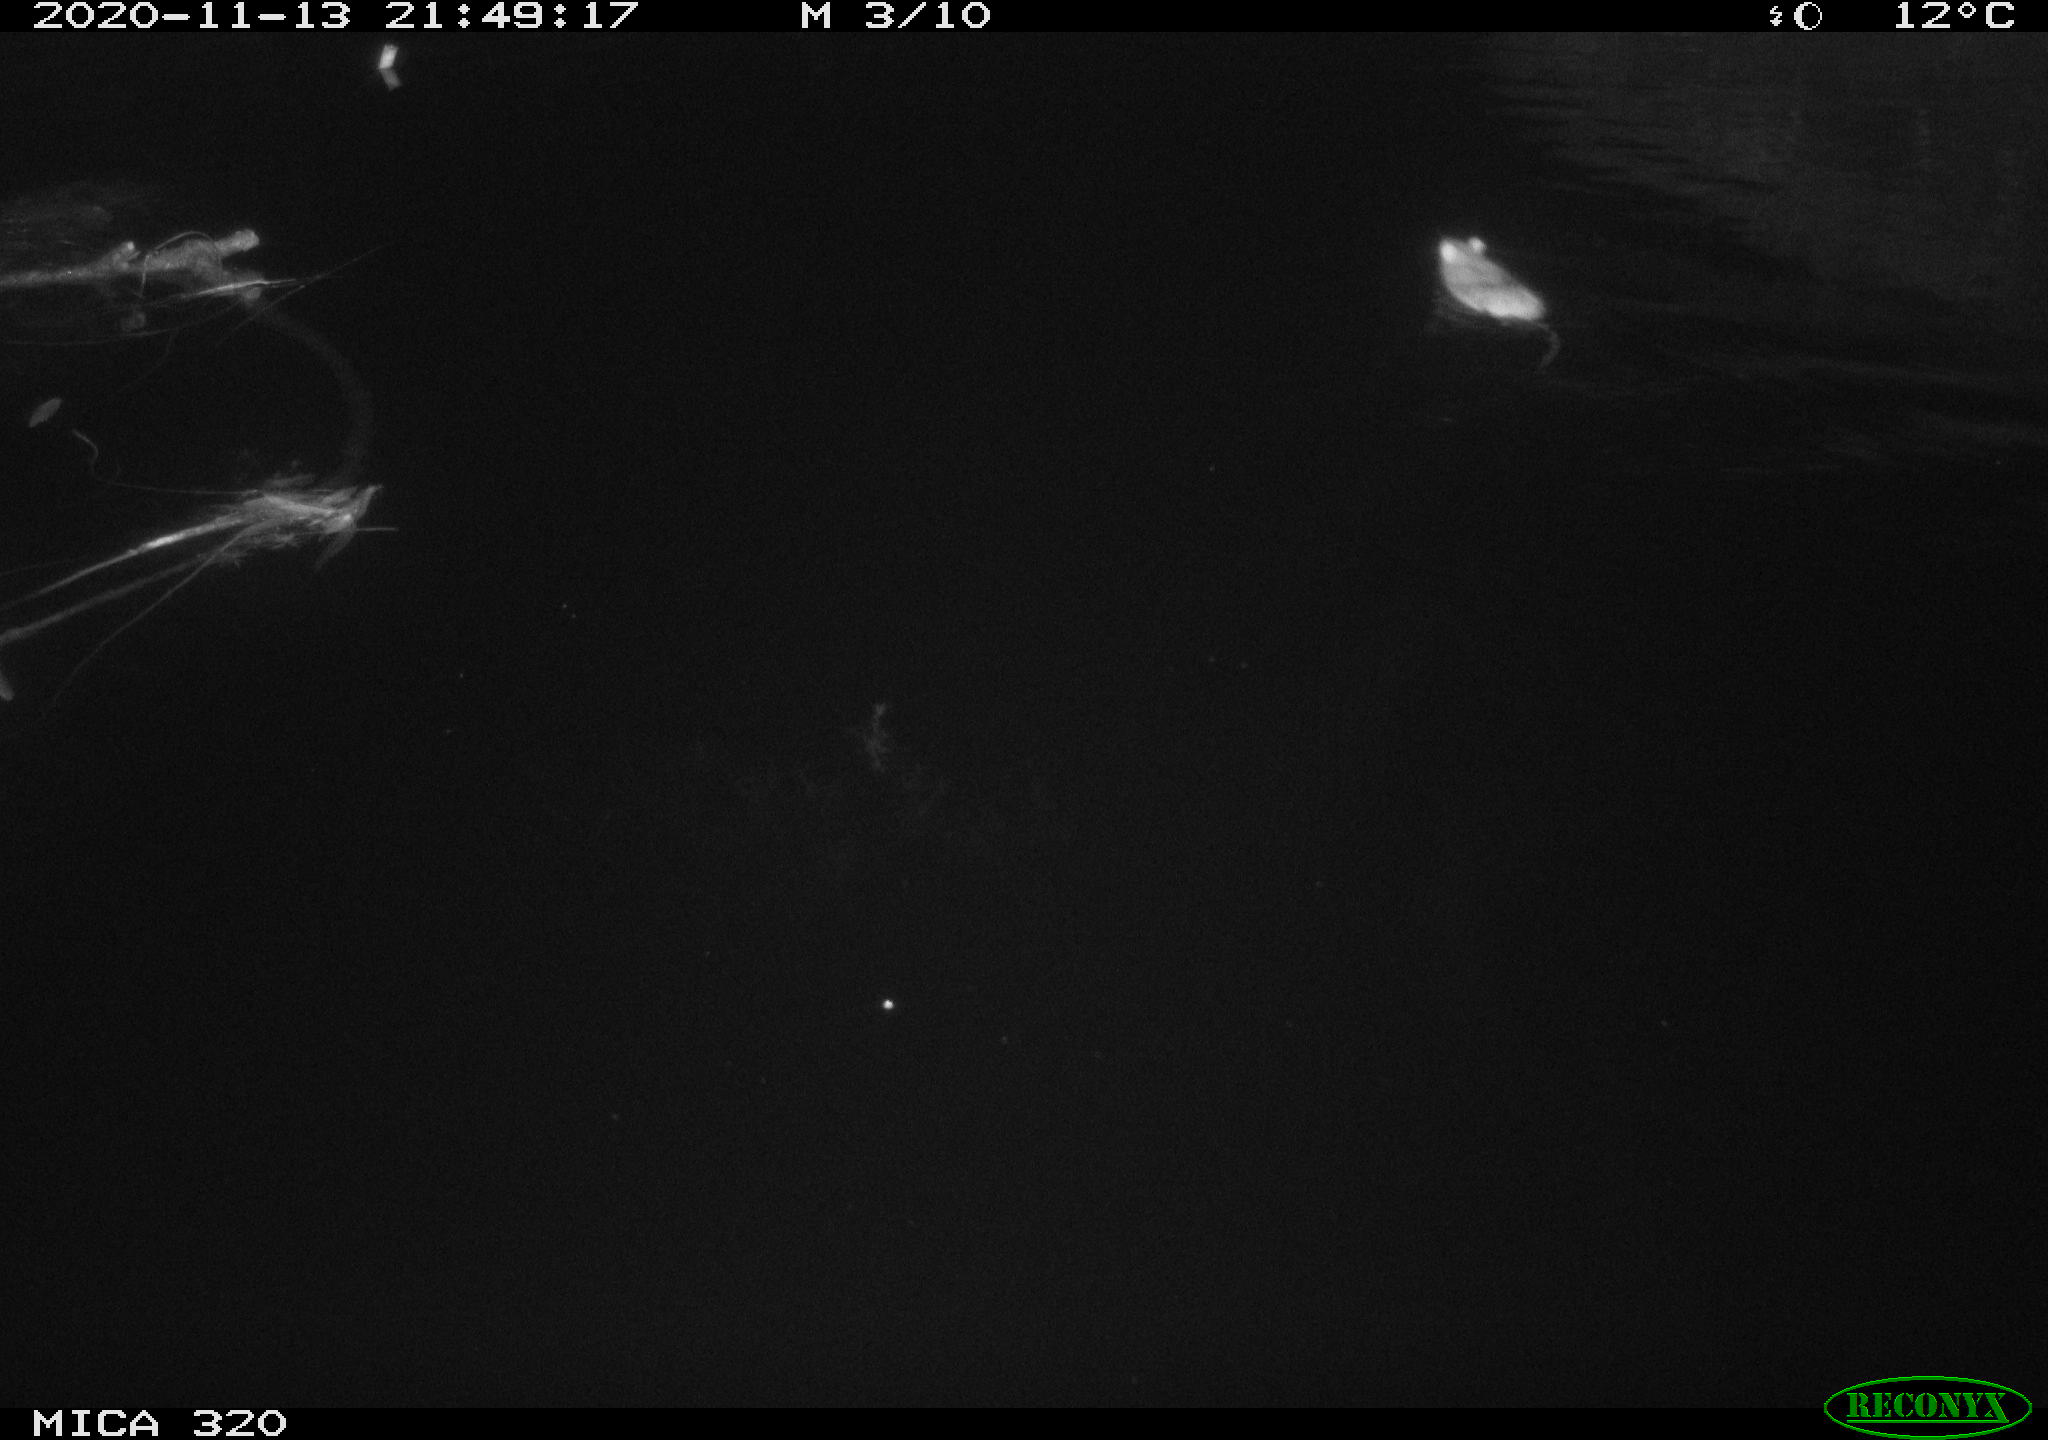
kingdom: Animalia
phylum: Chordata
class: Mammalia
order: Rodentia
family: Muridae
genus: Rattus
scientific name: Rattus norvegicus
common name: Brown rat
